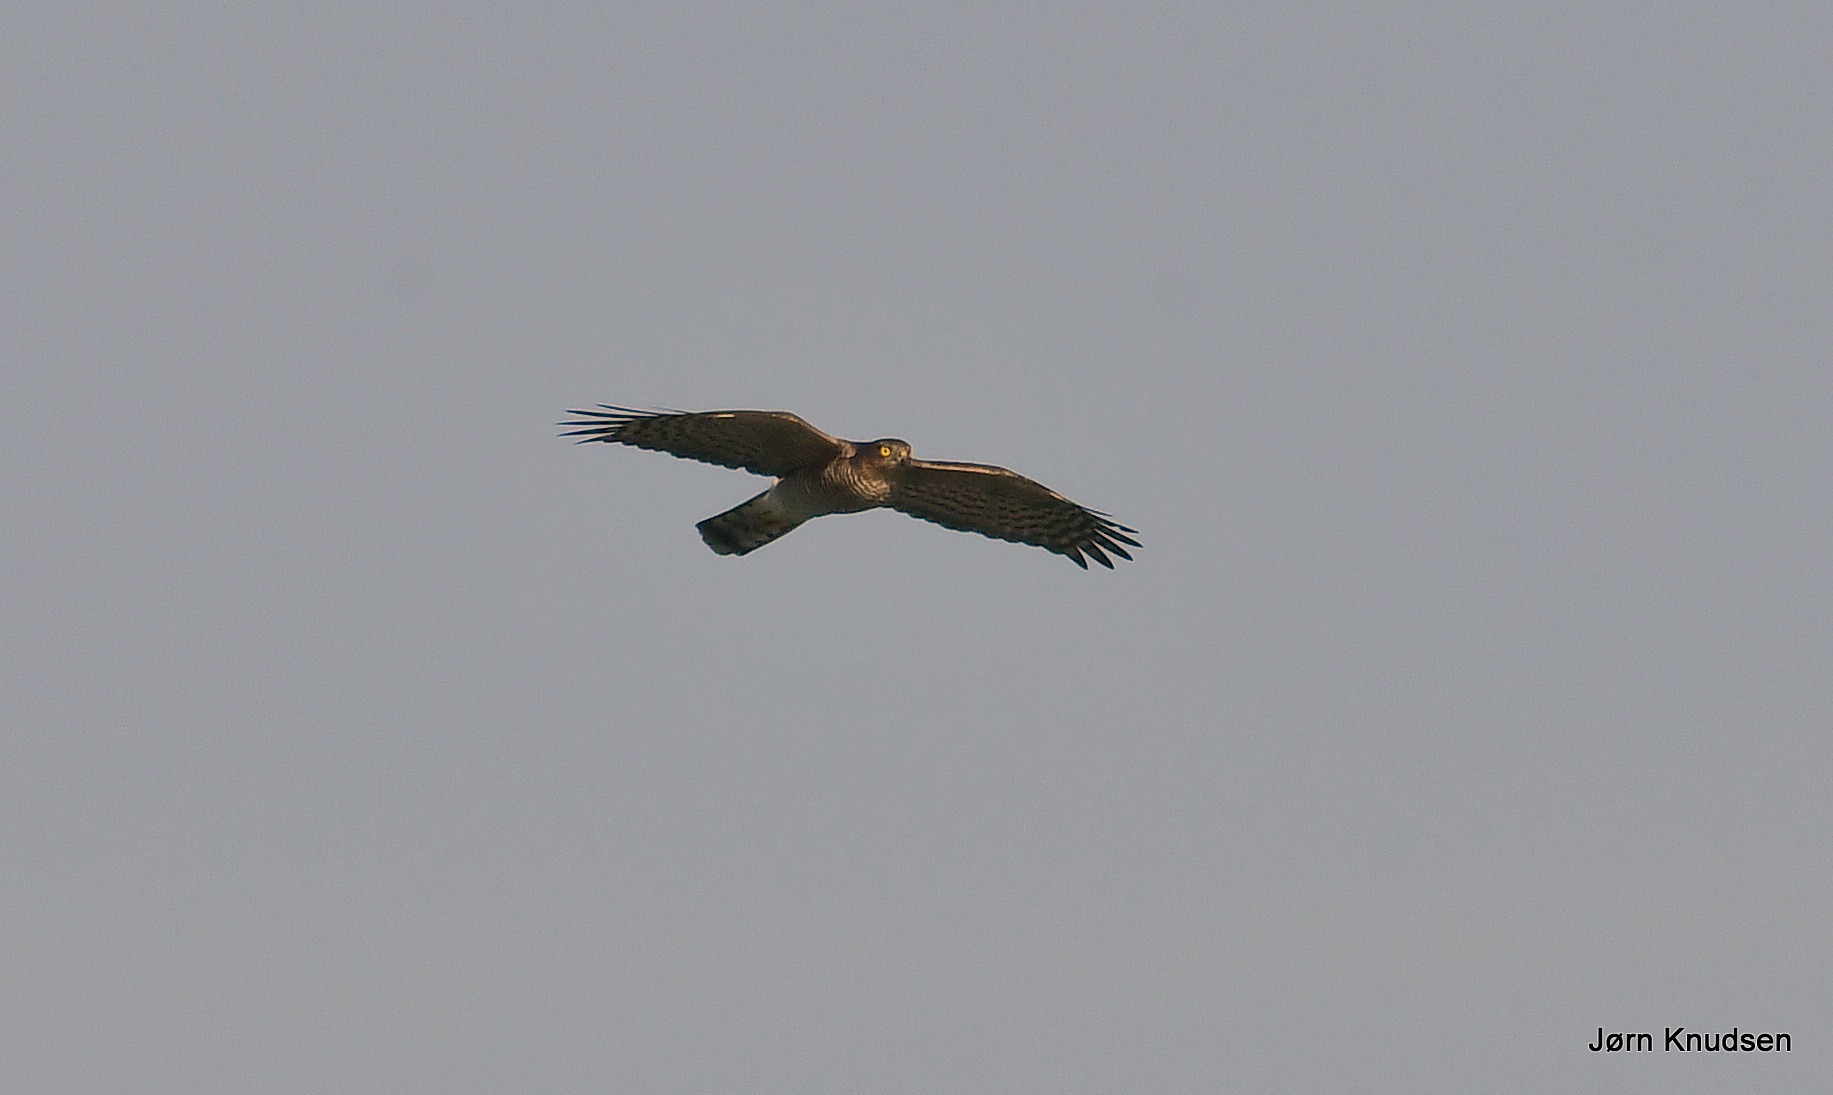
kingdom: Animalia
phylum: Chordata
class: Aves
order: Accipitriformes
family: Accipitridae
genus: Accipiter
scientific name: Accipiter nisus
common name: Spurvehøg
